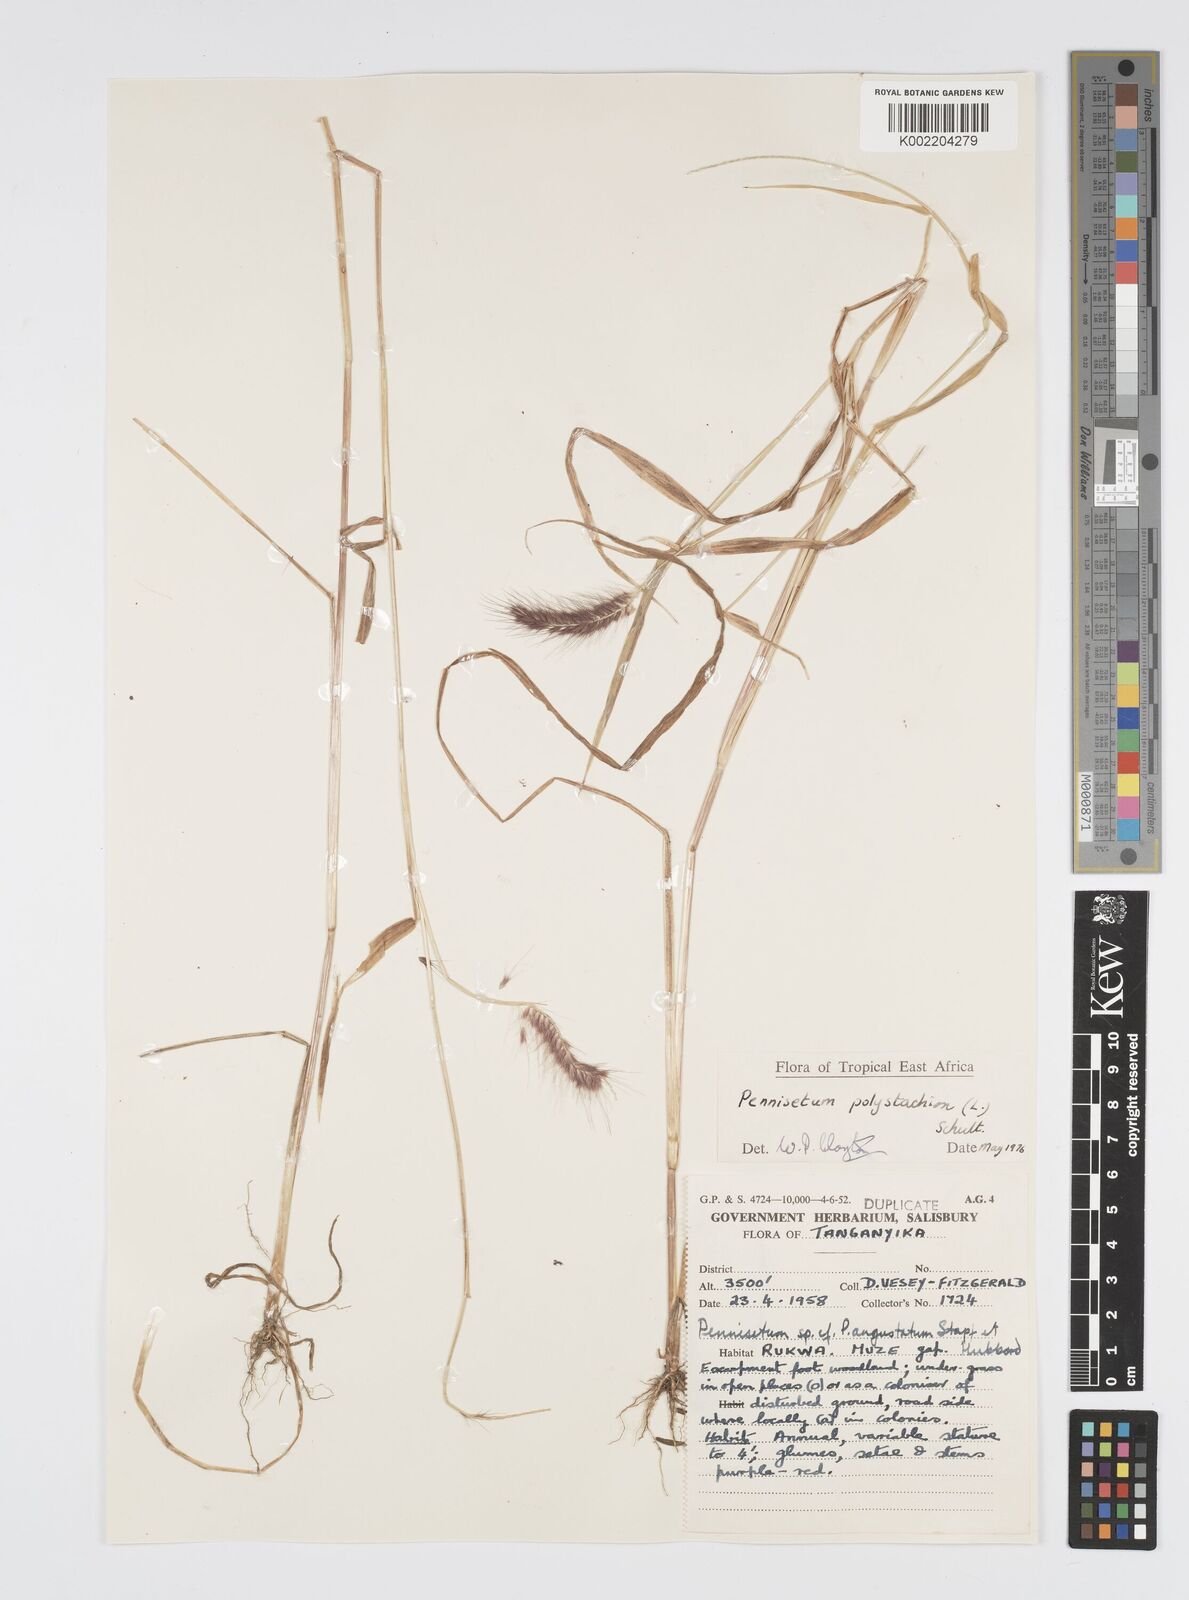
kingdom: Plantae
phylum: Tracheophyta
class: Liliopsida
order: Poales
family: Poaceae
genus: Setaria
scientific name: Setaria parviflora
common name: Knotroot bristle-grass
